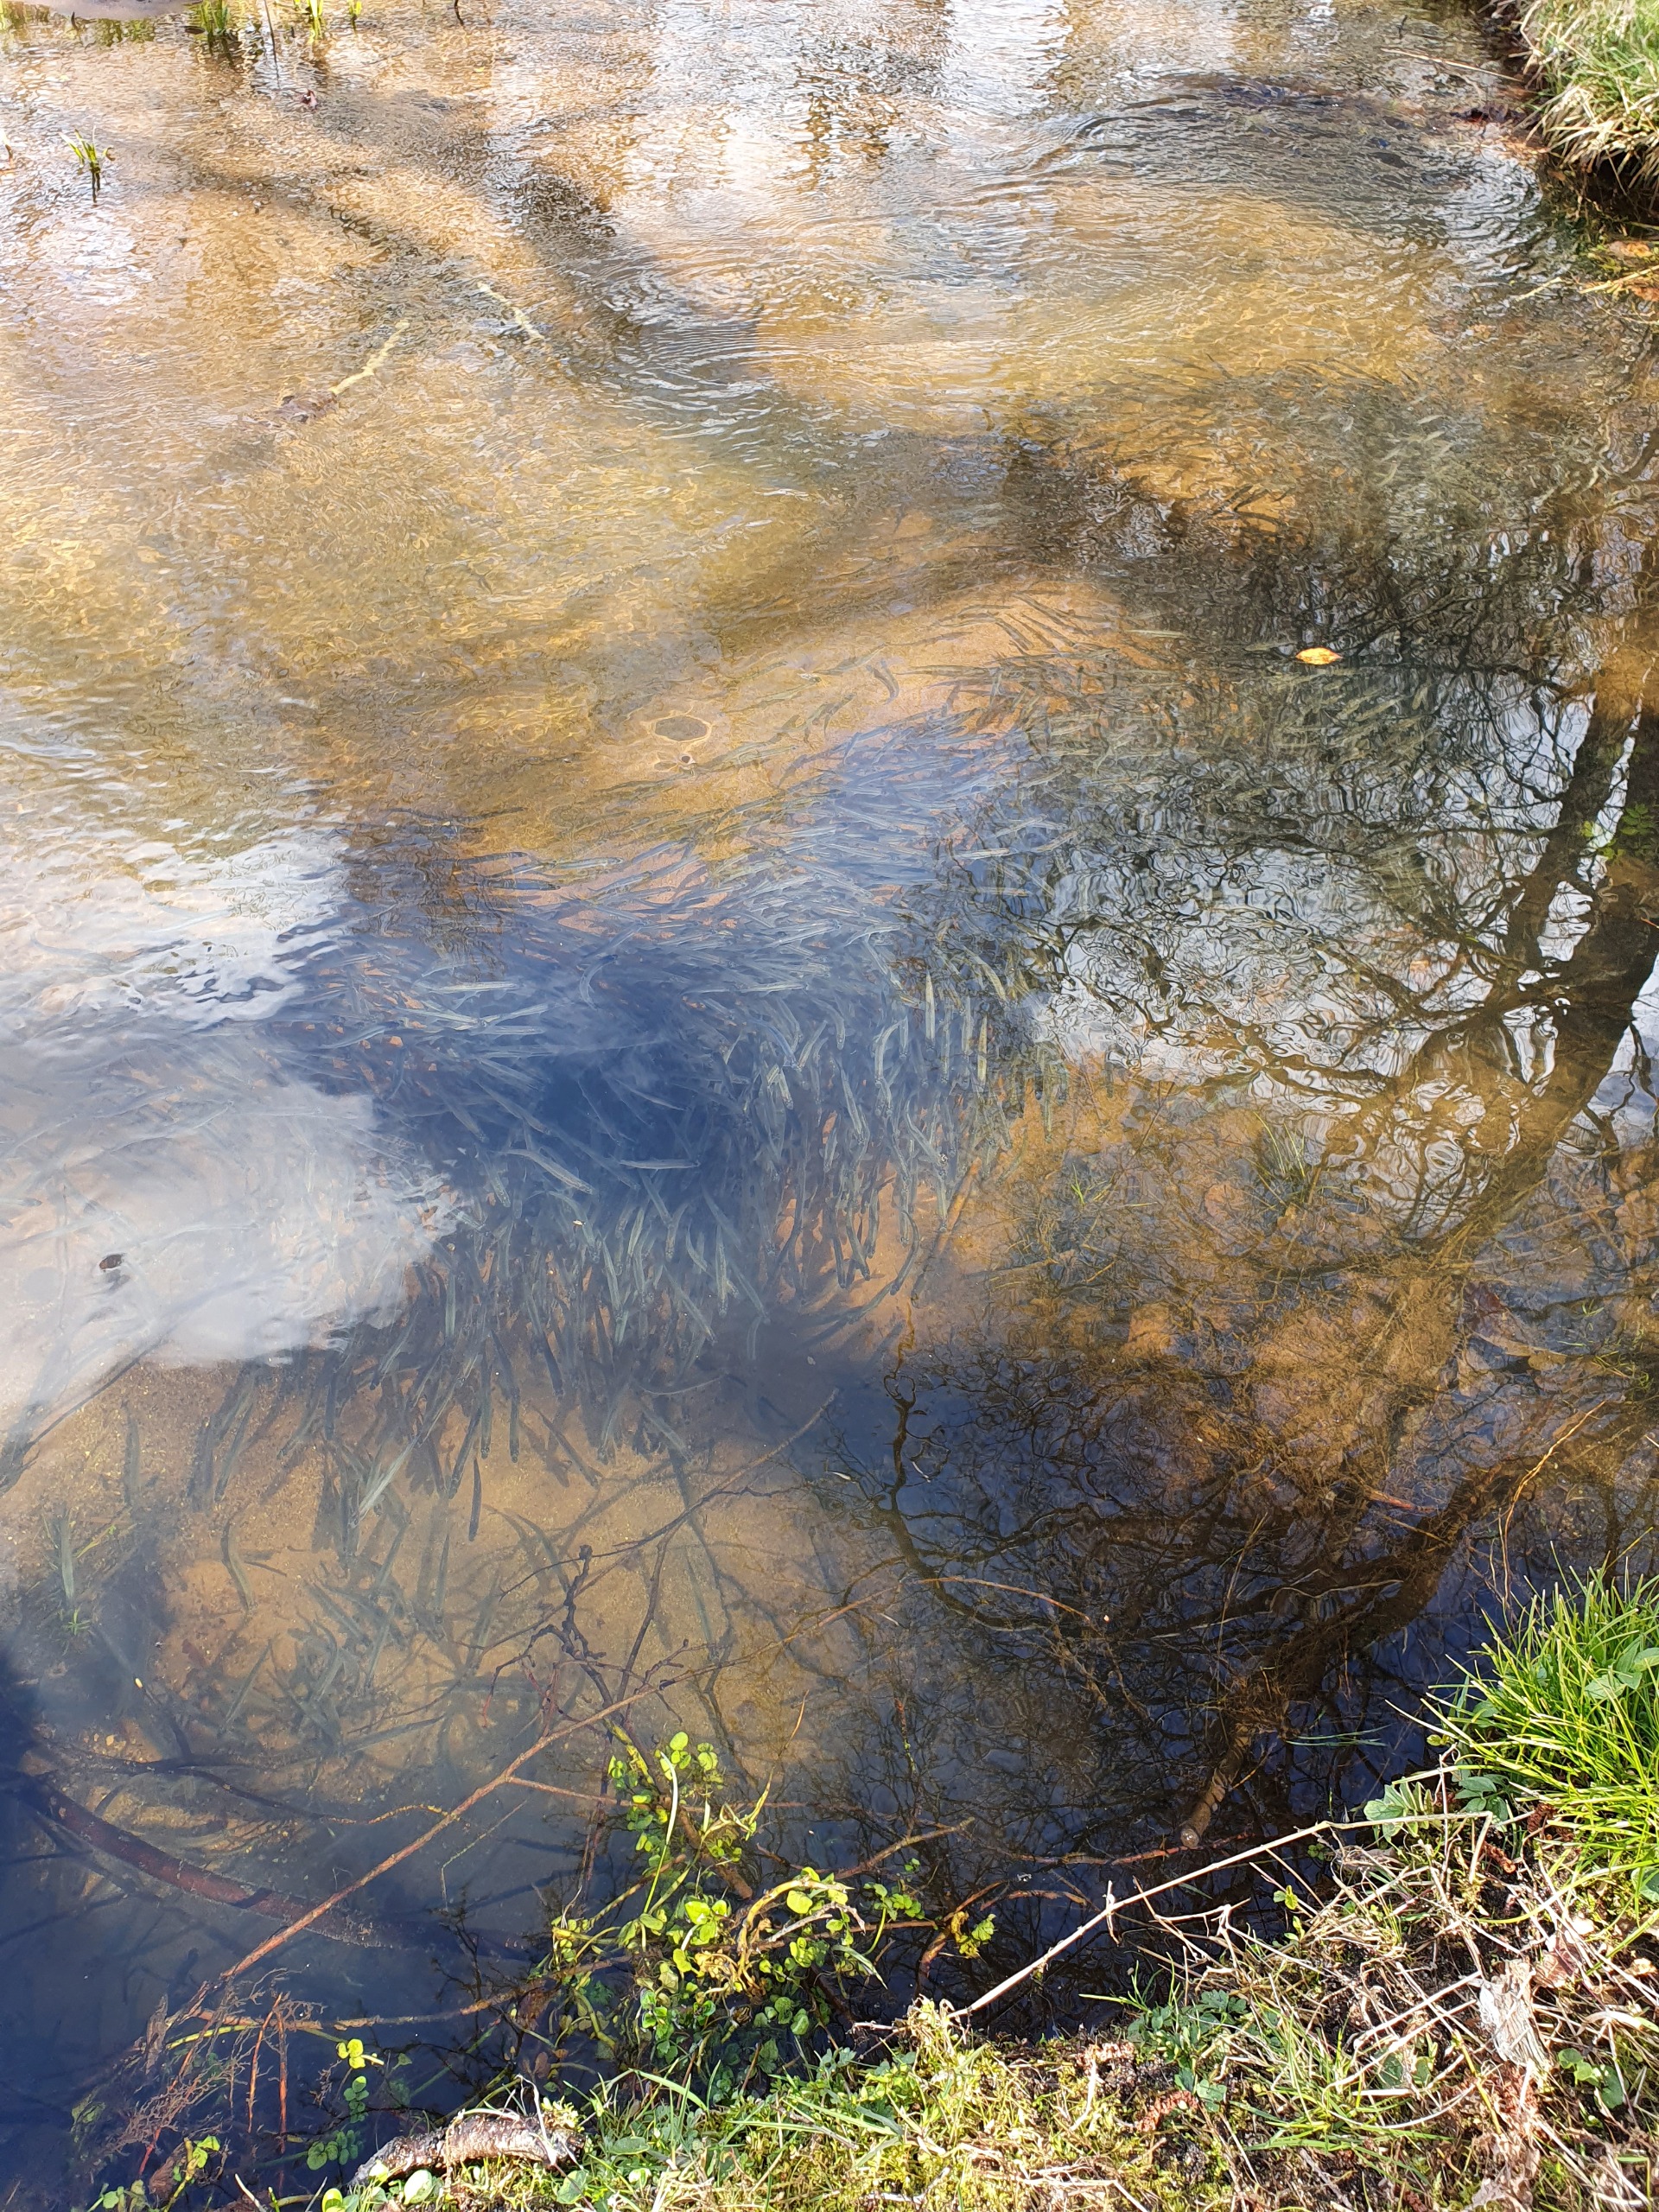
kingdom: Animalia
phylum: Chordata
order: Osmeriformes
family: Osmeridae
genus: Osmerus
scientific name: Osmerus eperlanus
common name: Smelt
